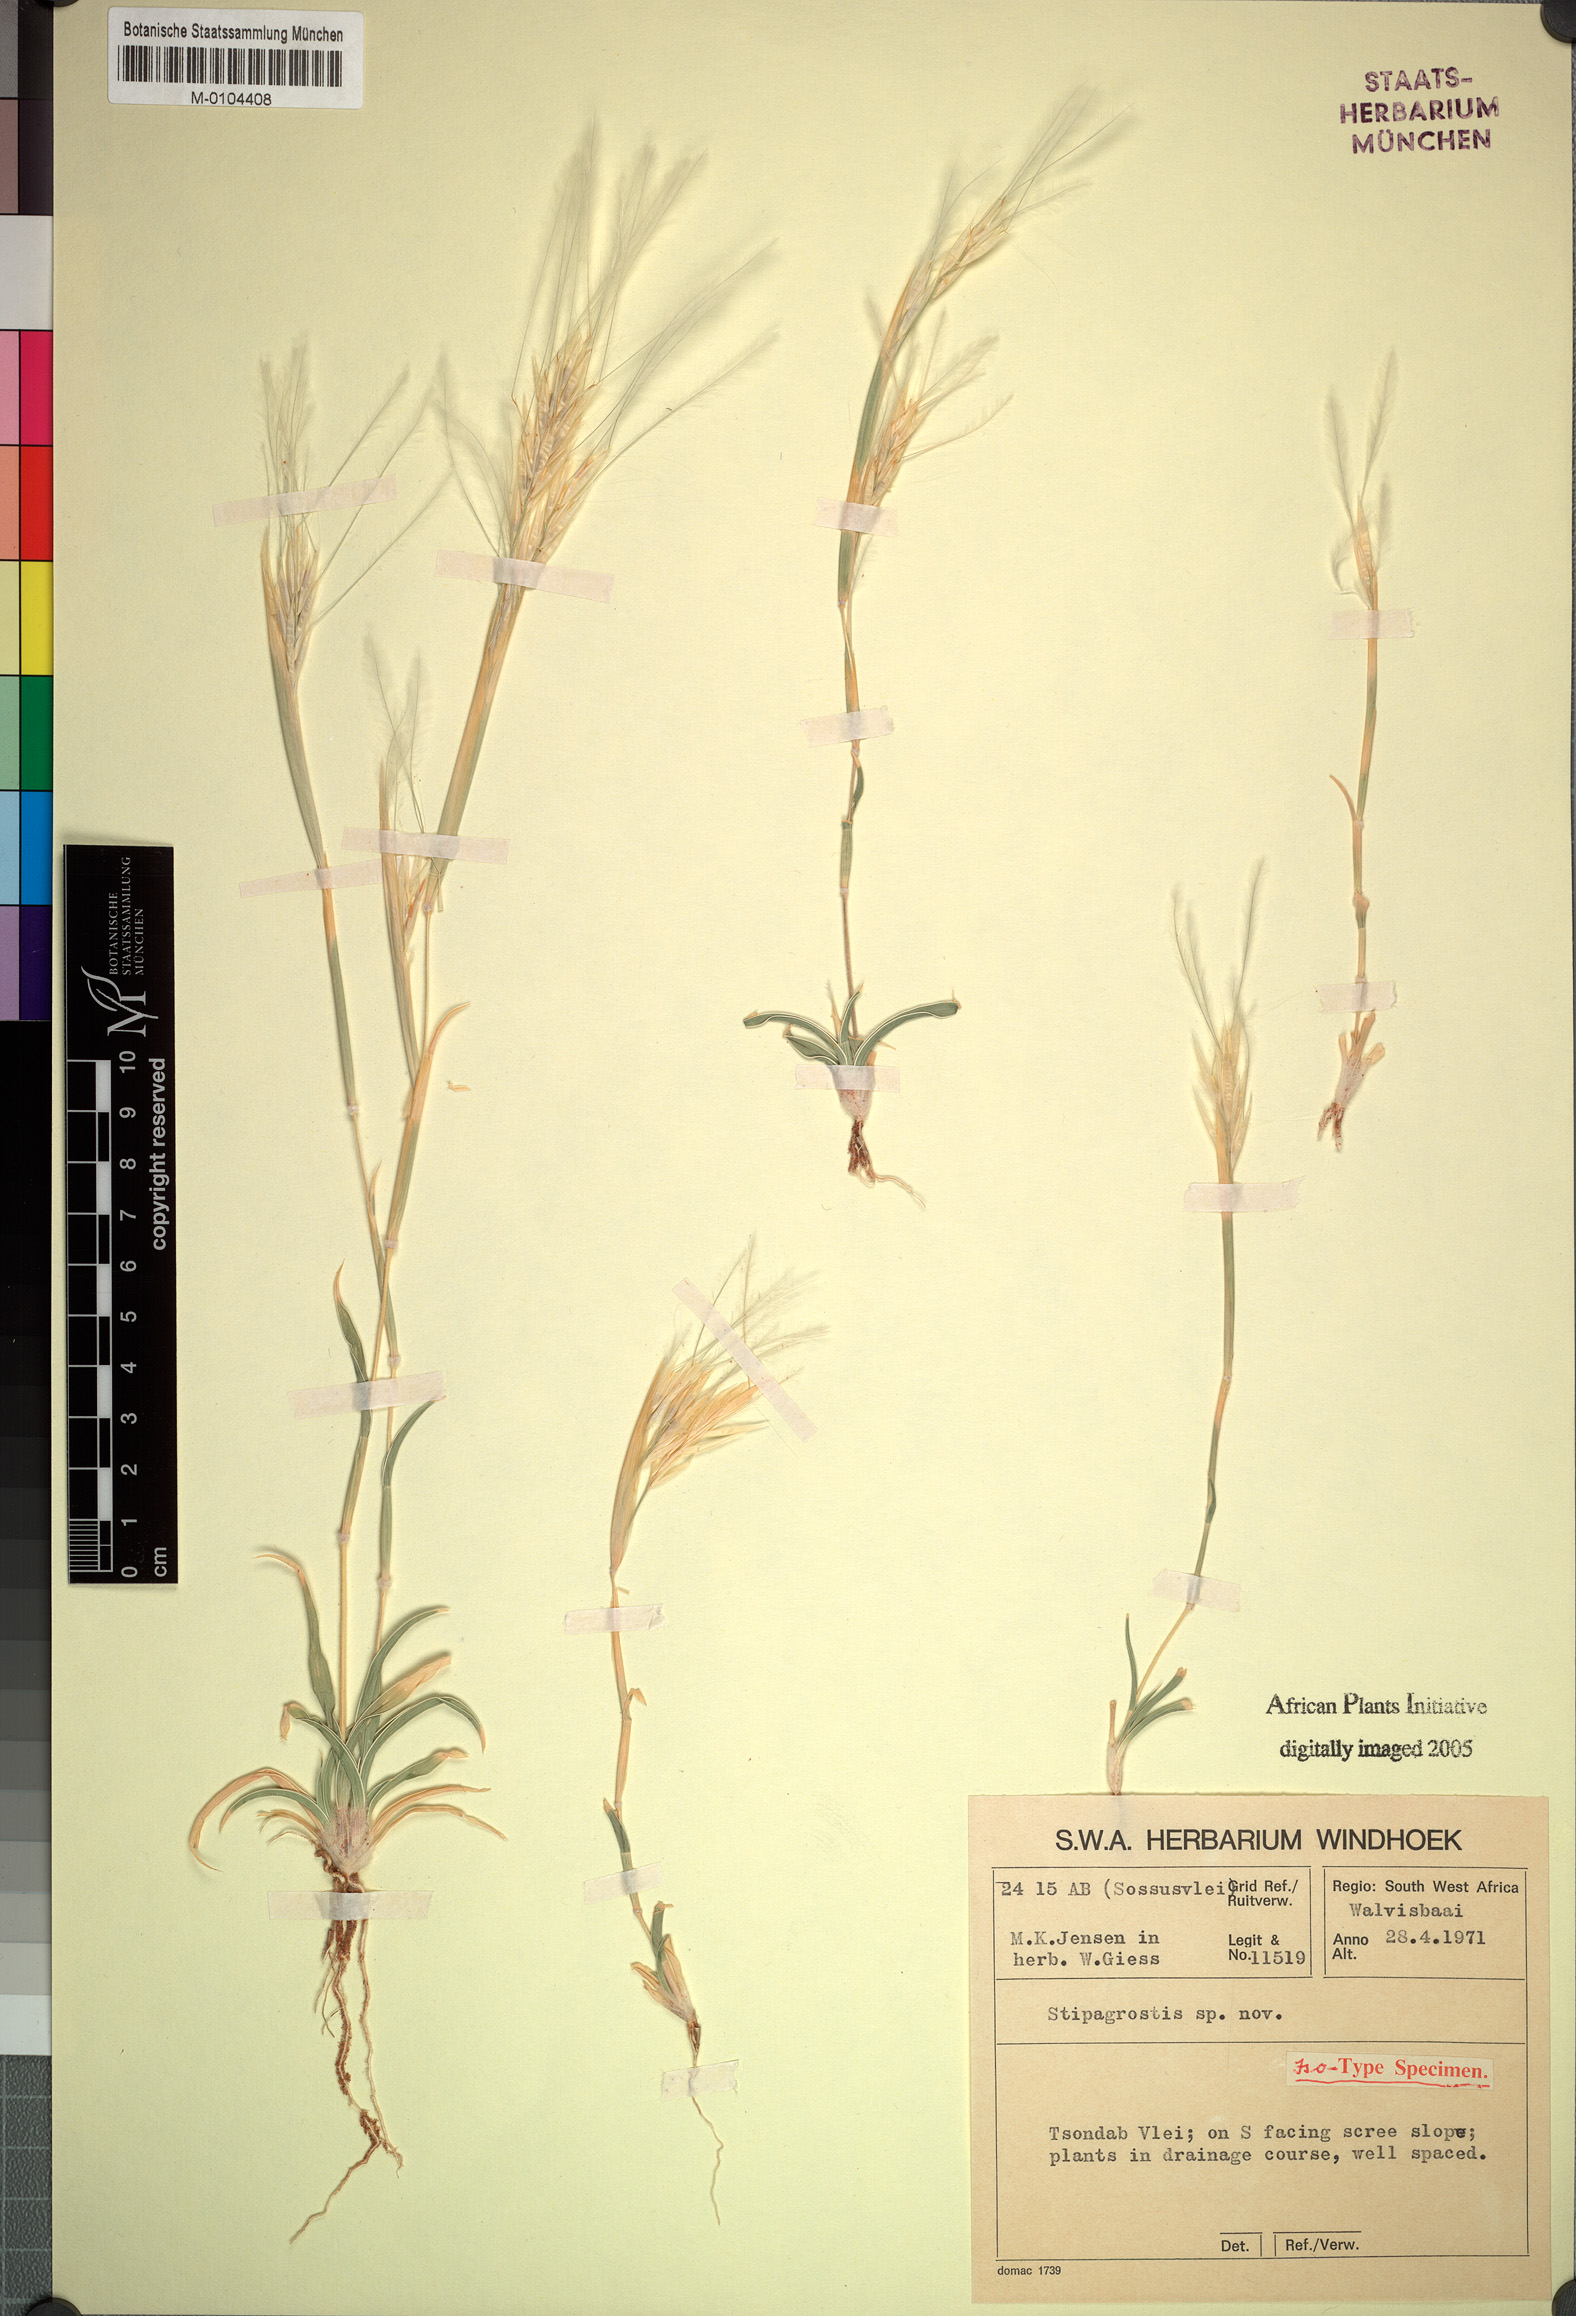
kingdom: Plantae
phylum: Tracheophyta
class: Liliopsida
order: Poales
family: Poaceae
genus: Stipagrostis
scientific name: Stipagrostis
